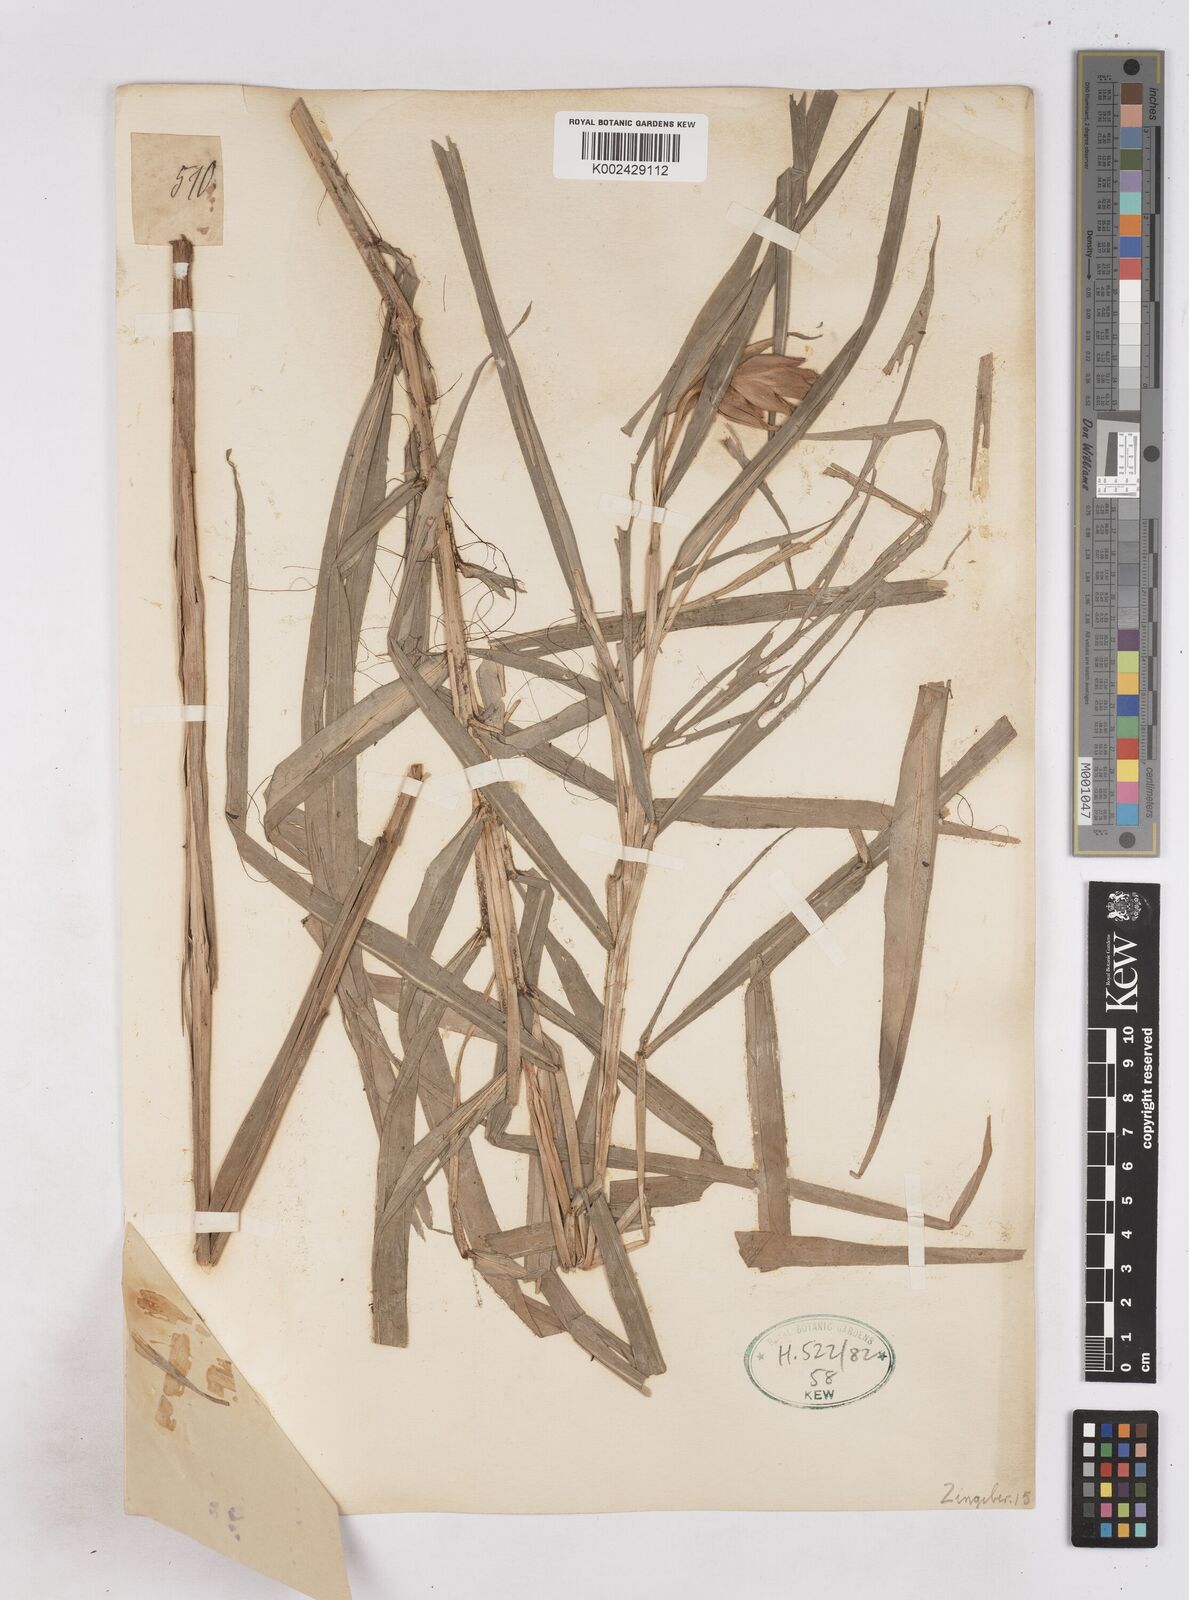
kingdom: Plantae
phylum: Tracheophyta
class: Liliopsida
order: Zingiberales
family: Zingiberaceae
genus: Zingiber
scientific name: Zingiber gramineum
